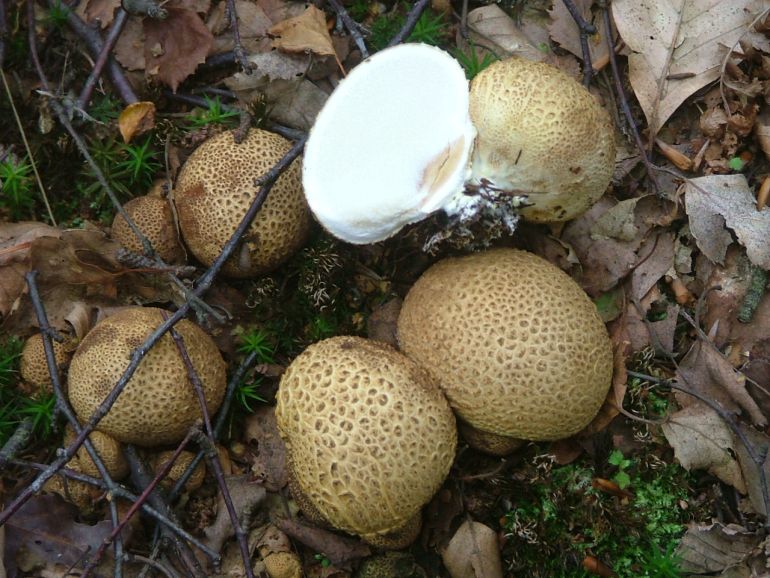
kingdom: Fungi
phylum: Basidiomycota
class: Agaricomycetes
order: Boletales
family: Sclerodermataceae
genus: Scleroderma
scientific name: Scleroderma citrinum
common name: almindelig bruskbold
